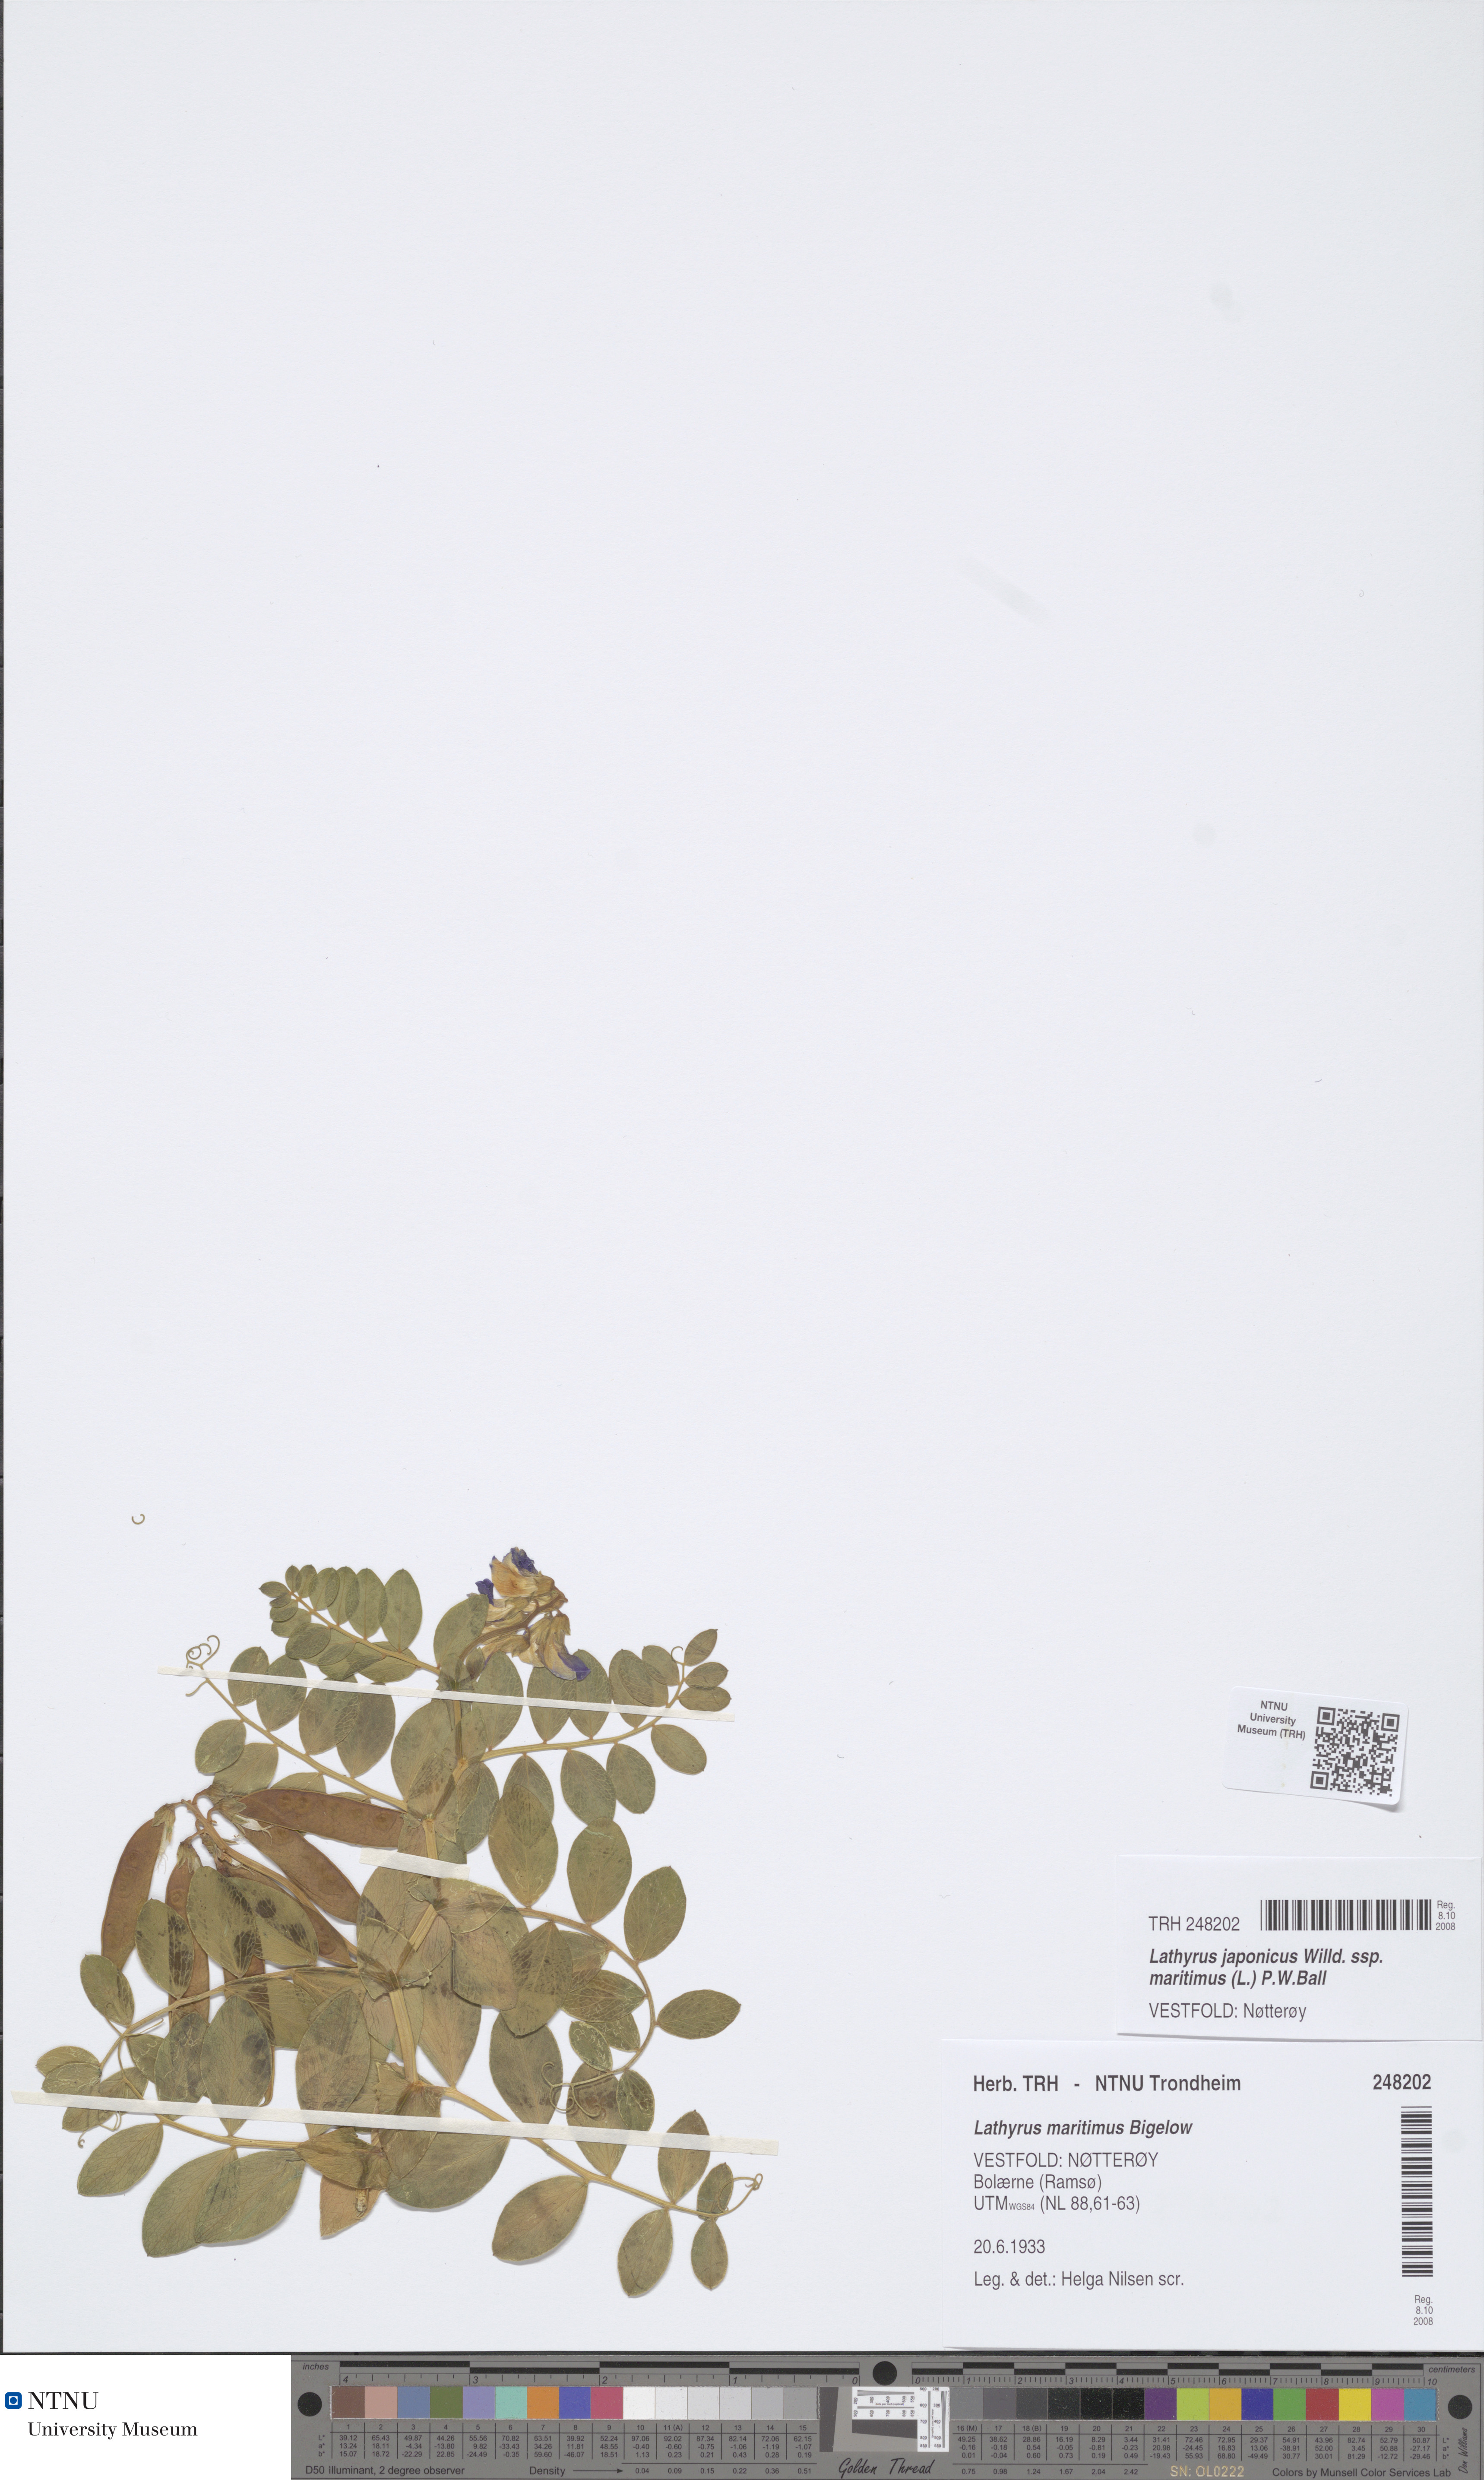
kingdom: Plantae
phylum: Tracheophyta
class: Magnoliopsida
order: Fabales
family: Fabaceae
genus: Lathyrus
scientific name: Lathyrus japonicus
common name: Sea pea
